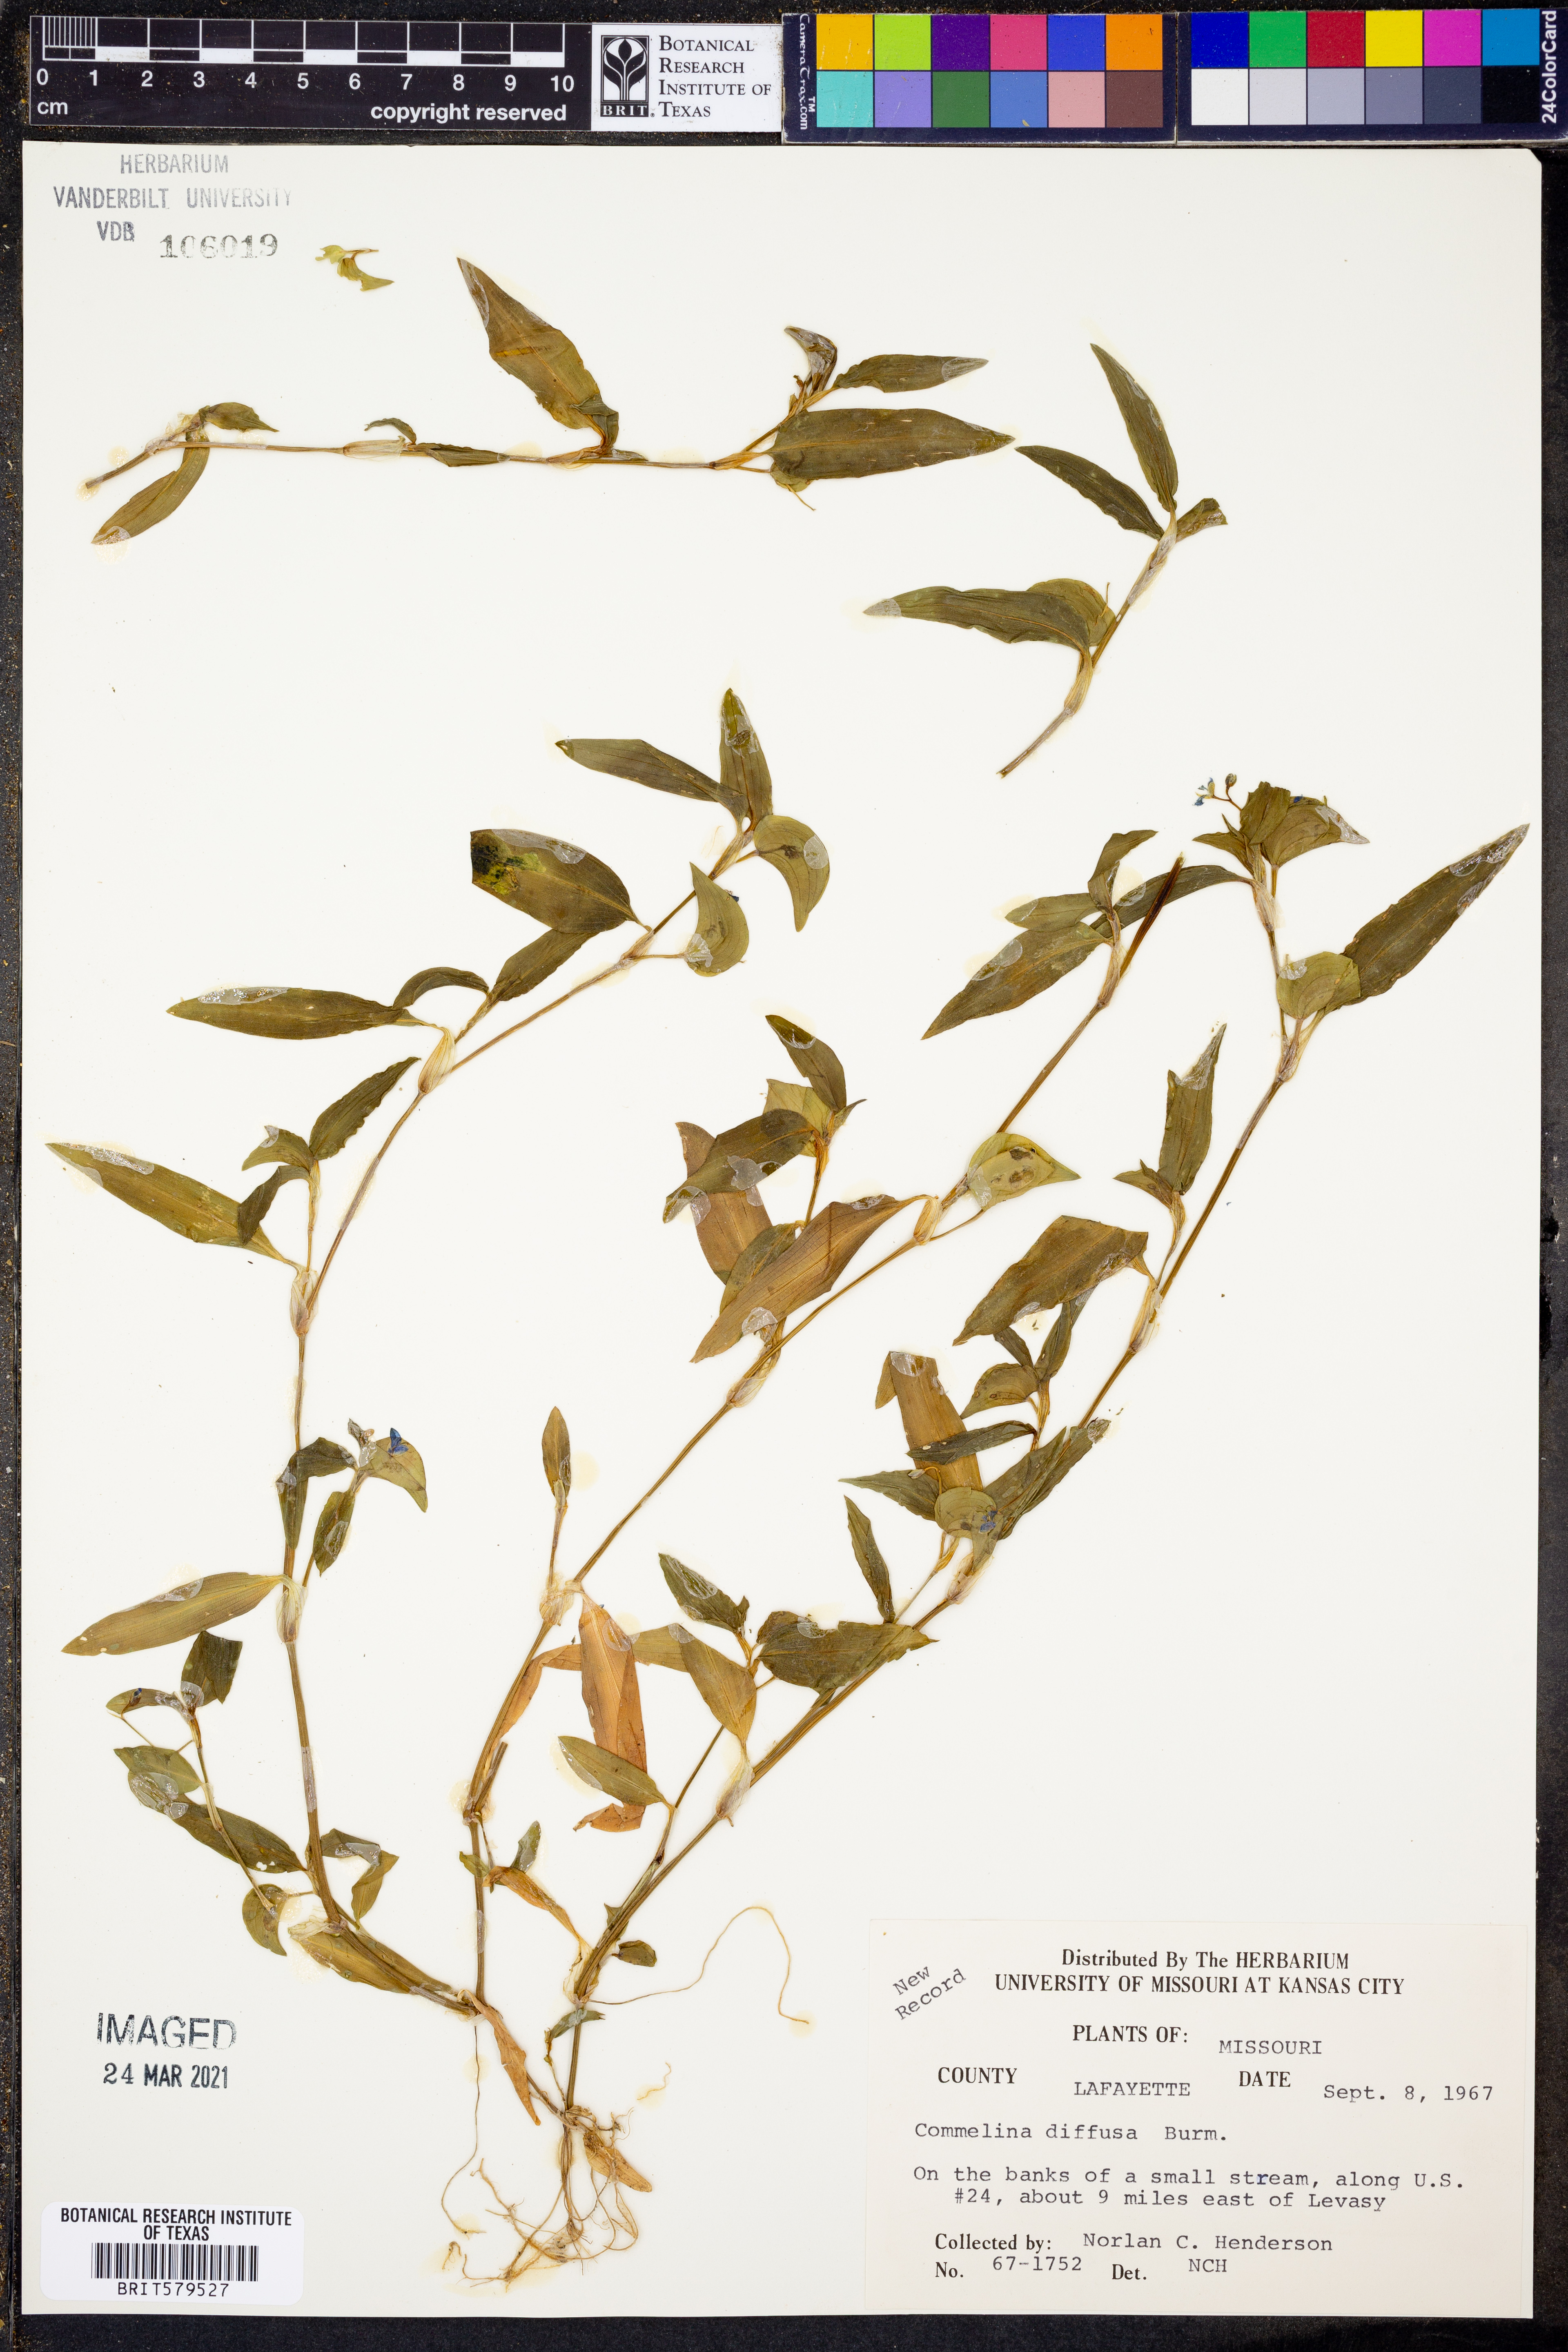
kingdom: Plantae
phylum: Tracheophyta
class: Liliopsida
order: Commelinales
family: Commelinaceae
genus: Commelina
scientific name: Commelina diffusa
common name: Climbing dayflower
